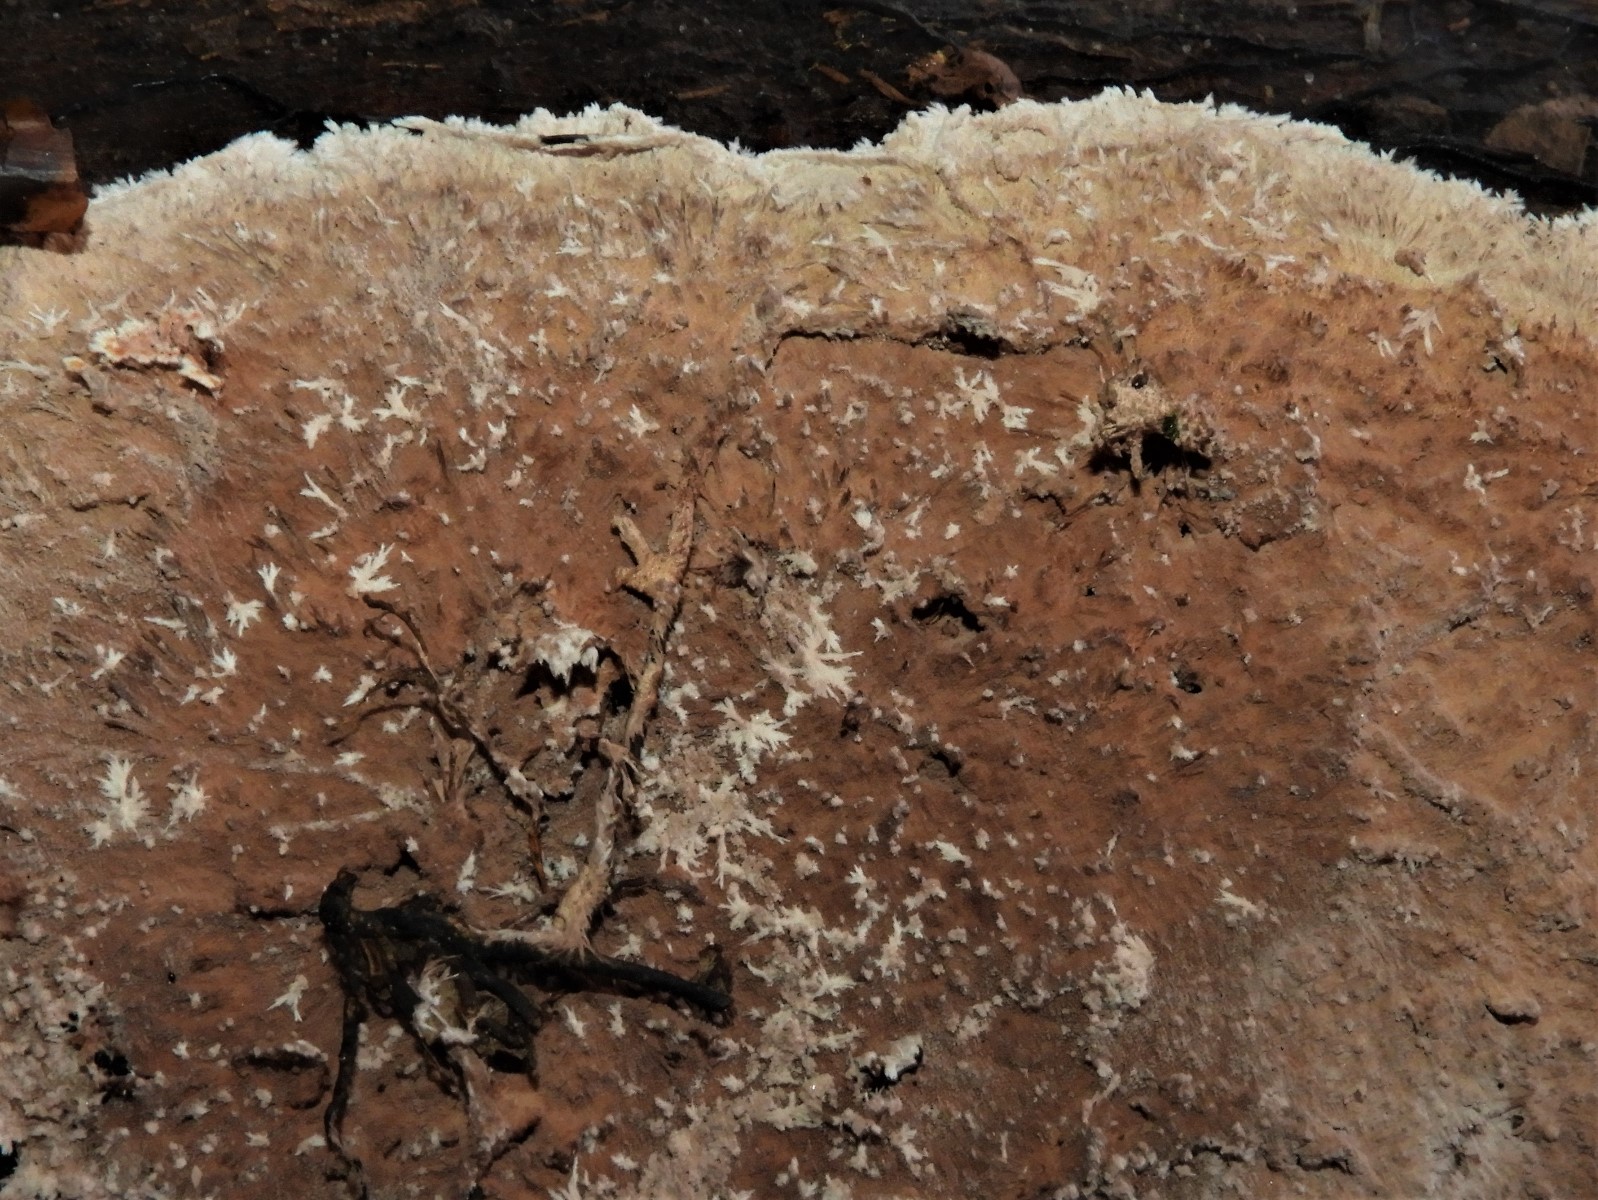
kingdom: Fungi
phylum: Basidiomycota
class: Agaricomycetes
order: Polyporales
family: Steccherinaceae
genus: Steccherinum
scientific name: Steccherinum fimbriatum
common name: trådet skønpig
